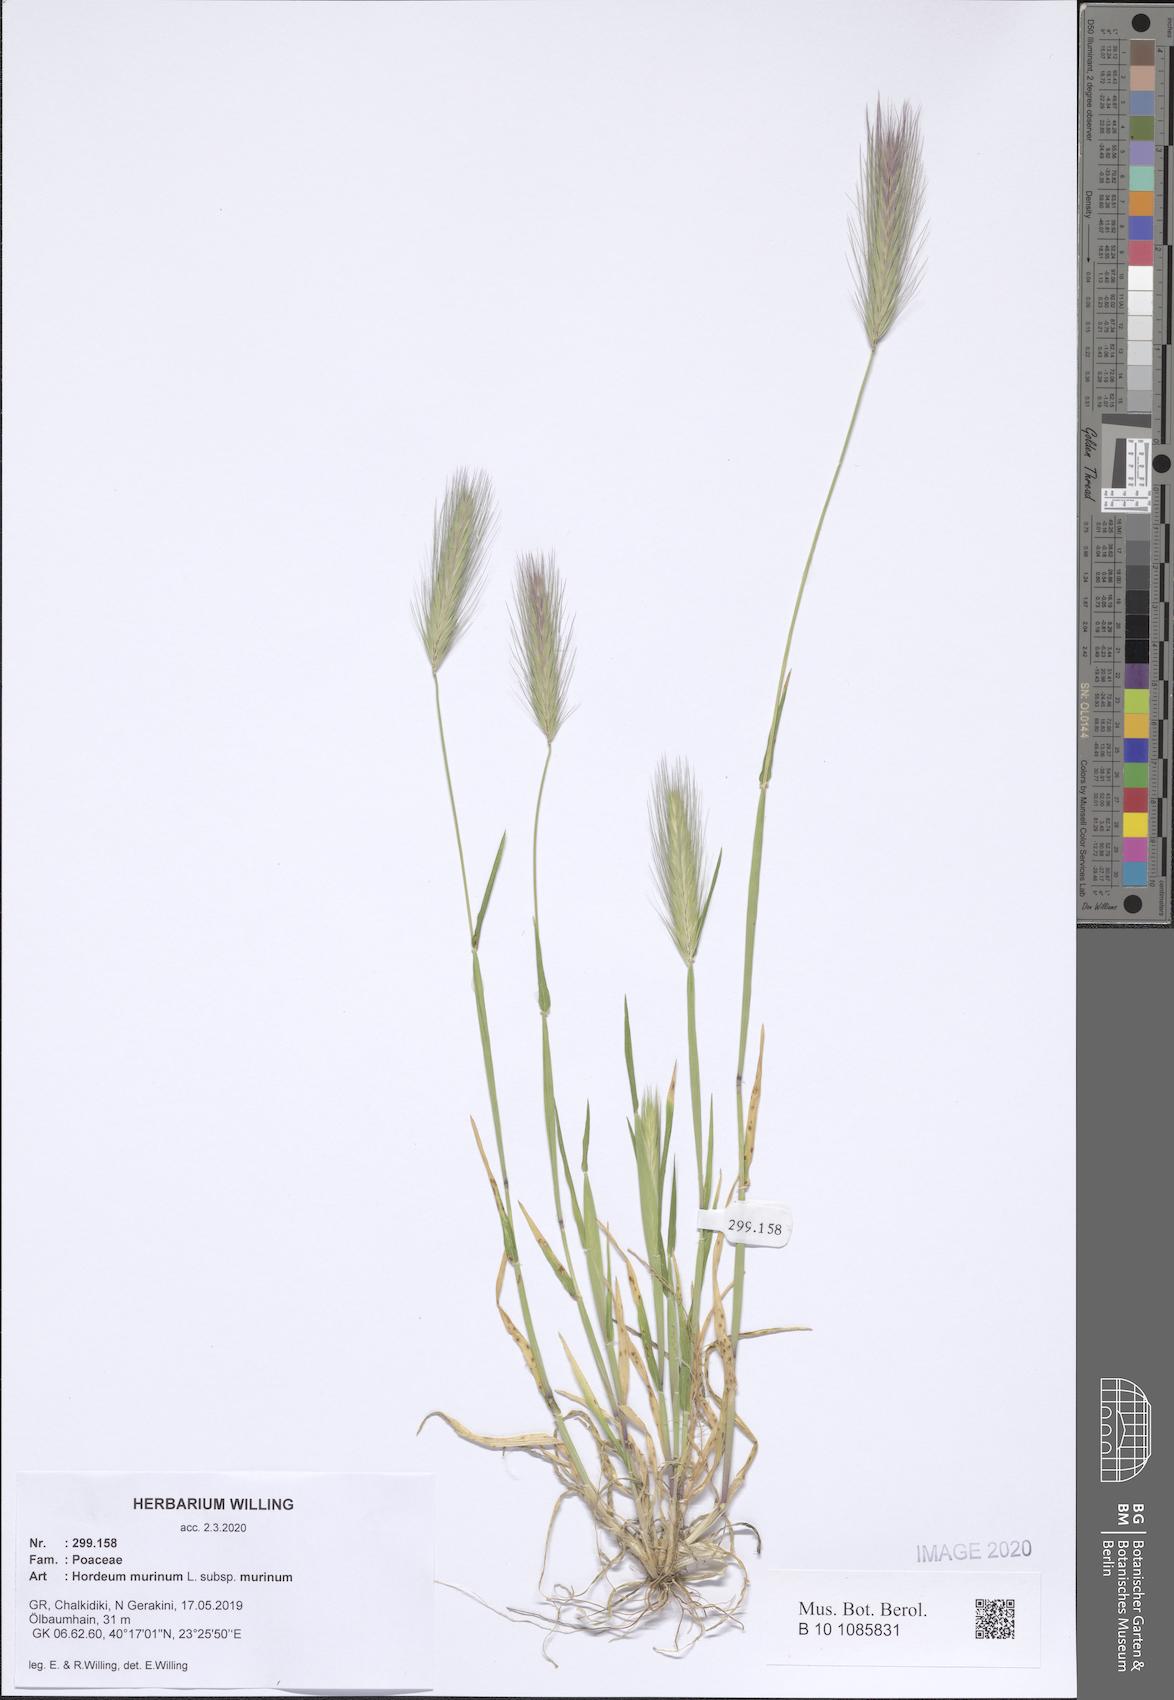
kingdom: Plantae
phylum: Tracheophyta
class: Liliopsida
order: Poales
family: Poaceae
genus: Hordeum
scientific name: Hordeum murinum
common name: Wall barley
